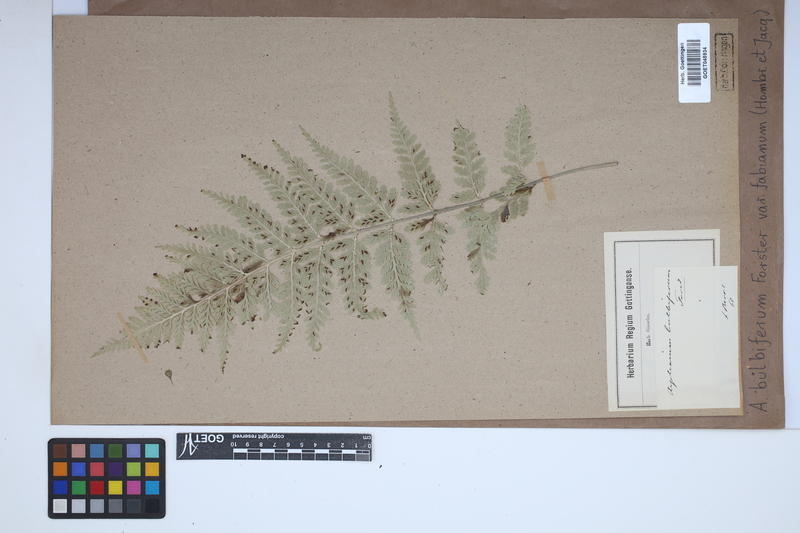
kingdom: Plantae
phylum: Tracheophyta
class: Polypodiopsida
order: Polypodiales
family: Aspleniaceae
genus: Asplenium
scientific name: Asplenium bulbiferum
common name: Mother fern
